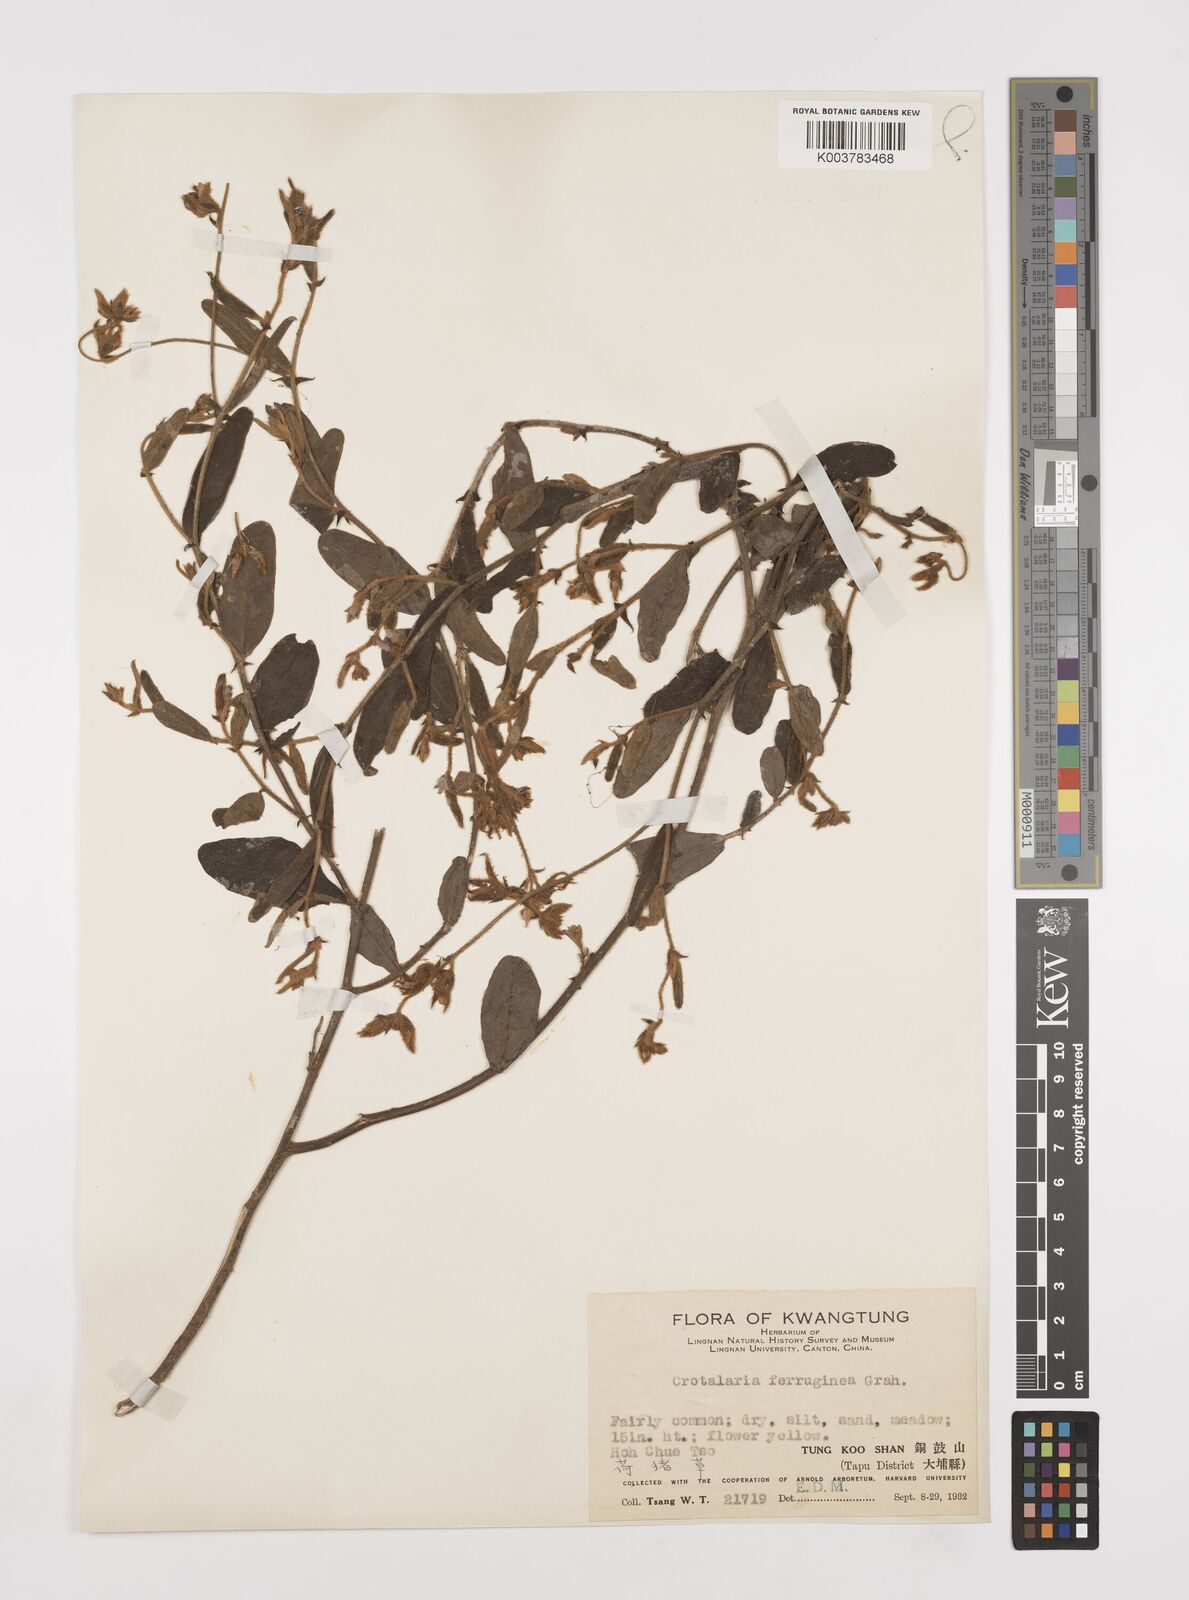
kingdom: Plantae
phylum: Tracheophyta
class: Magnoliopsida
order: Fabales
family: Fabaceae
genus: Crotalaria
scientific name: Crotalaria lejoloba
